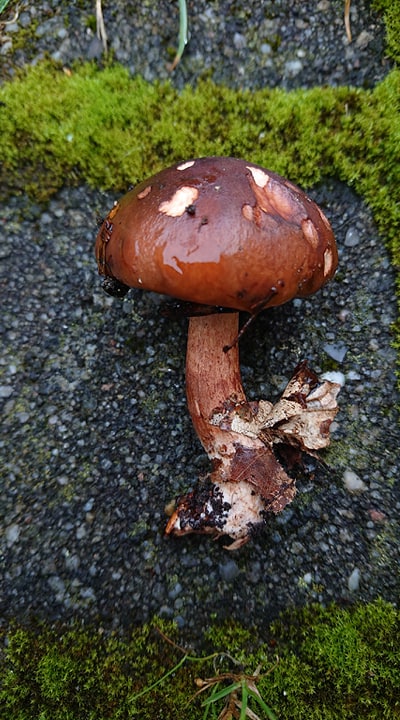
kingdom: Fungi
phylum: Basidiomycota
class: Agaricomycetes
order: Agaricales
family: Tricholomataceae
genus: Tricholoma
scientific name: Tricholoma ustale
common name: sveden ridderhat
